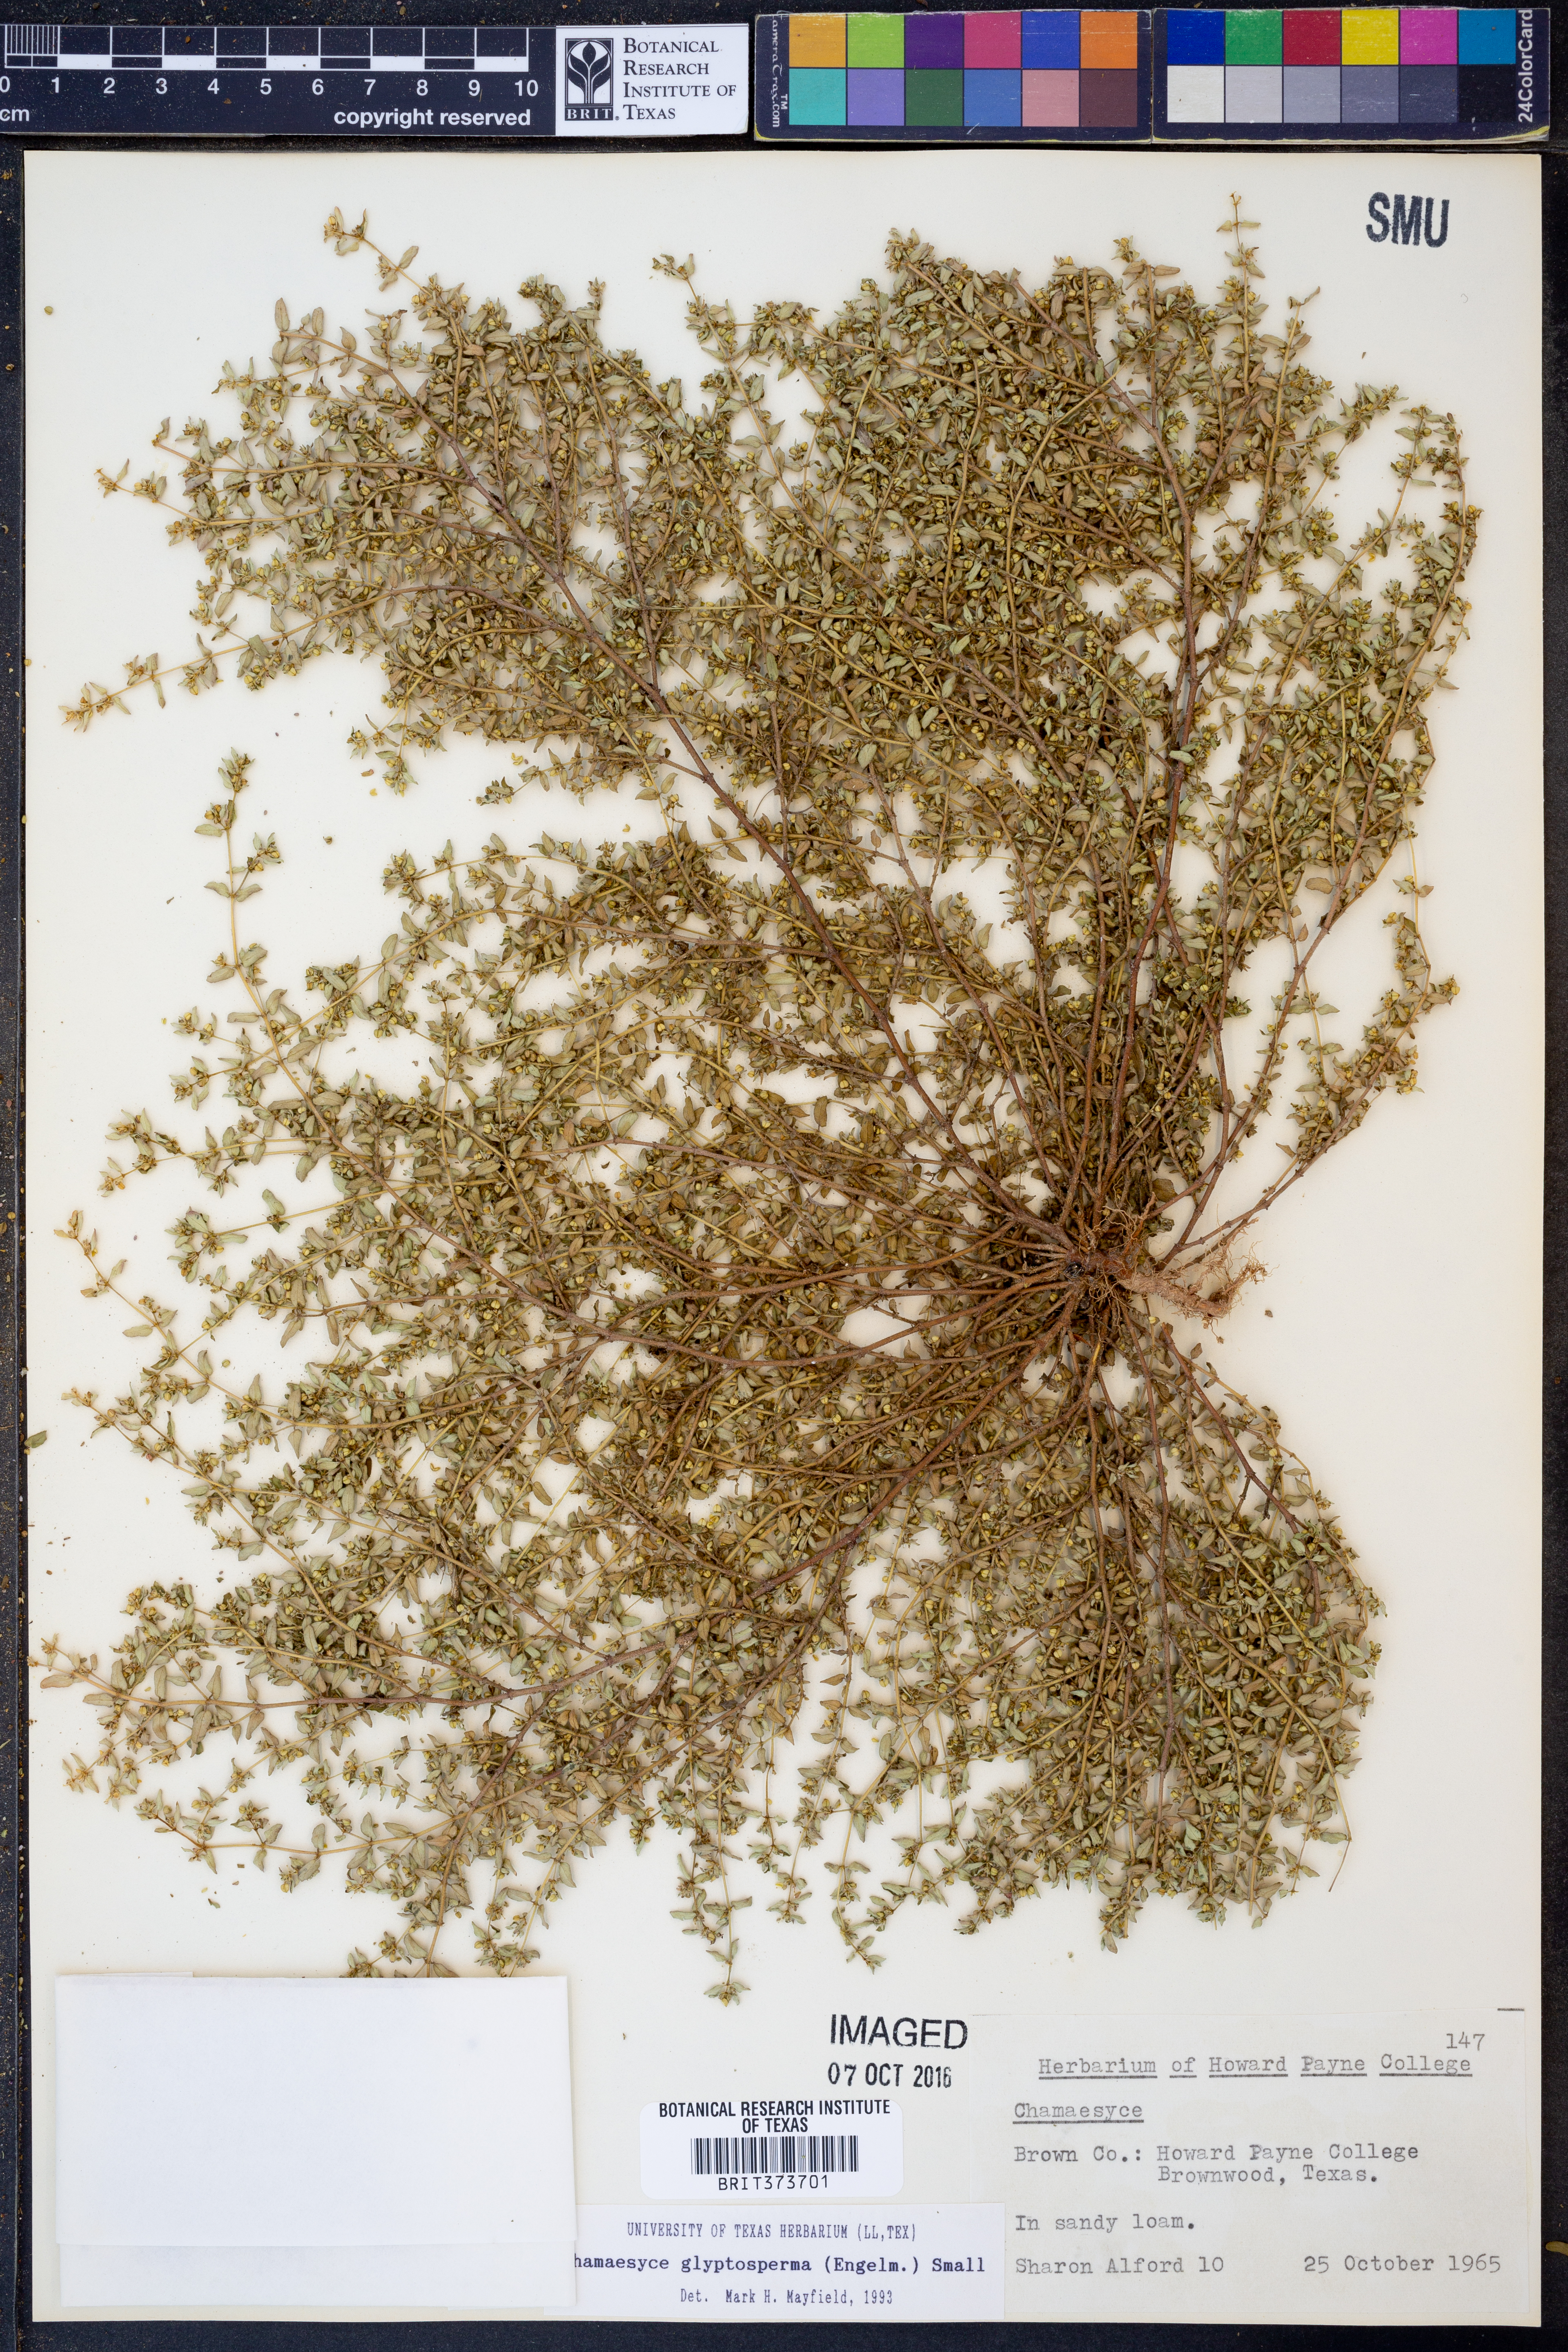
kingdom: Plantae
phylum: Tracheophyta
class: Magnoliopsida
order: Malpighiales
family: Euphorbiaceae
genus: Euphorbia
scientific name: Euphorbia glyptosperma
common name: Corrugate-seeded spurge
